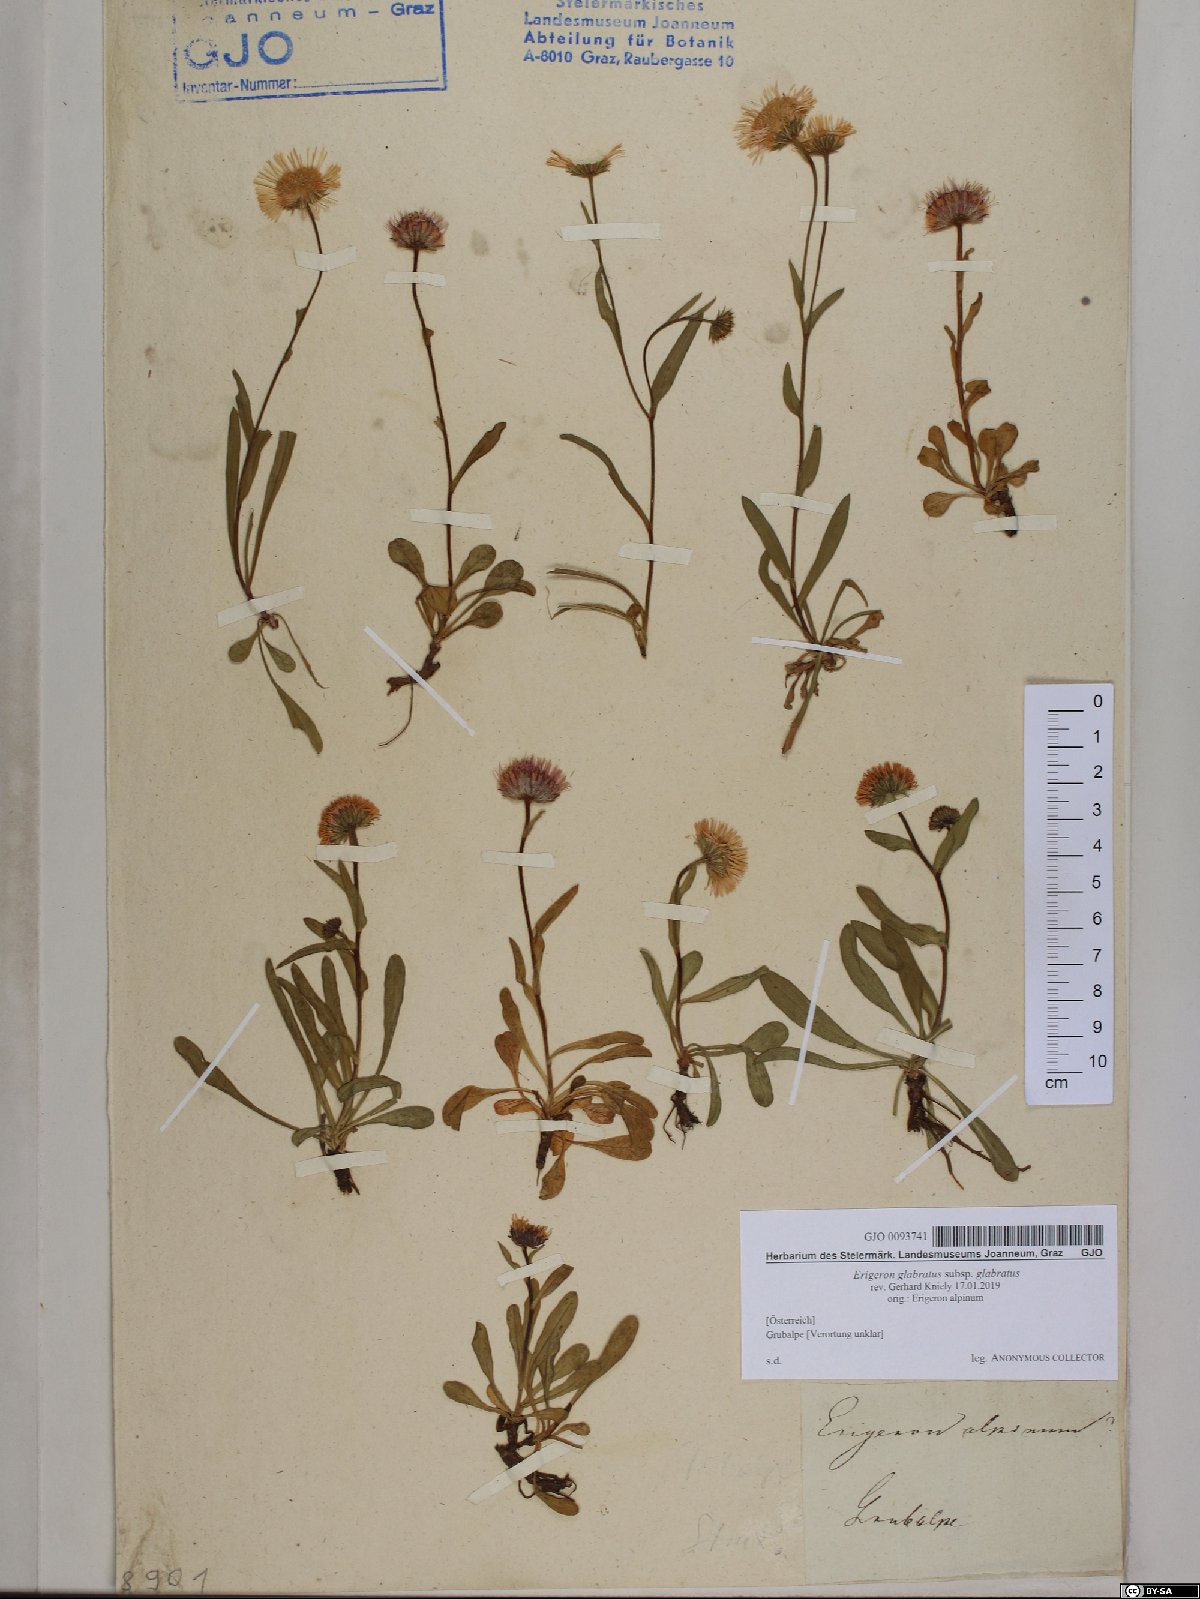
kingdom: Plantae
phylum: Tracheophyta
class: Magnoliopsida
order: Asterales
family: Asteraceae
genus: Erigeron
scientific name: Erigeron glabratus
